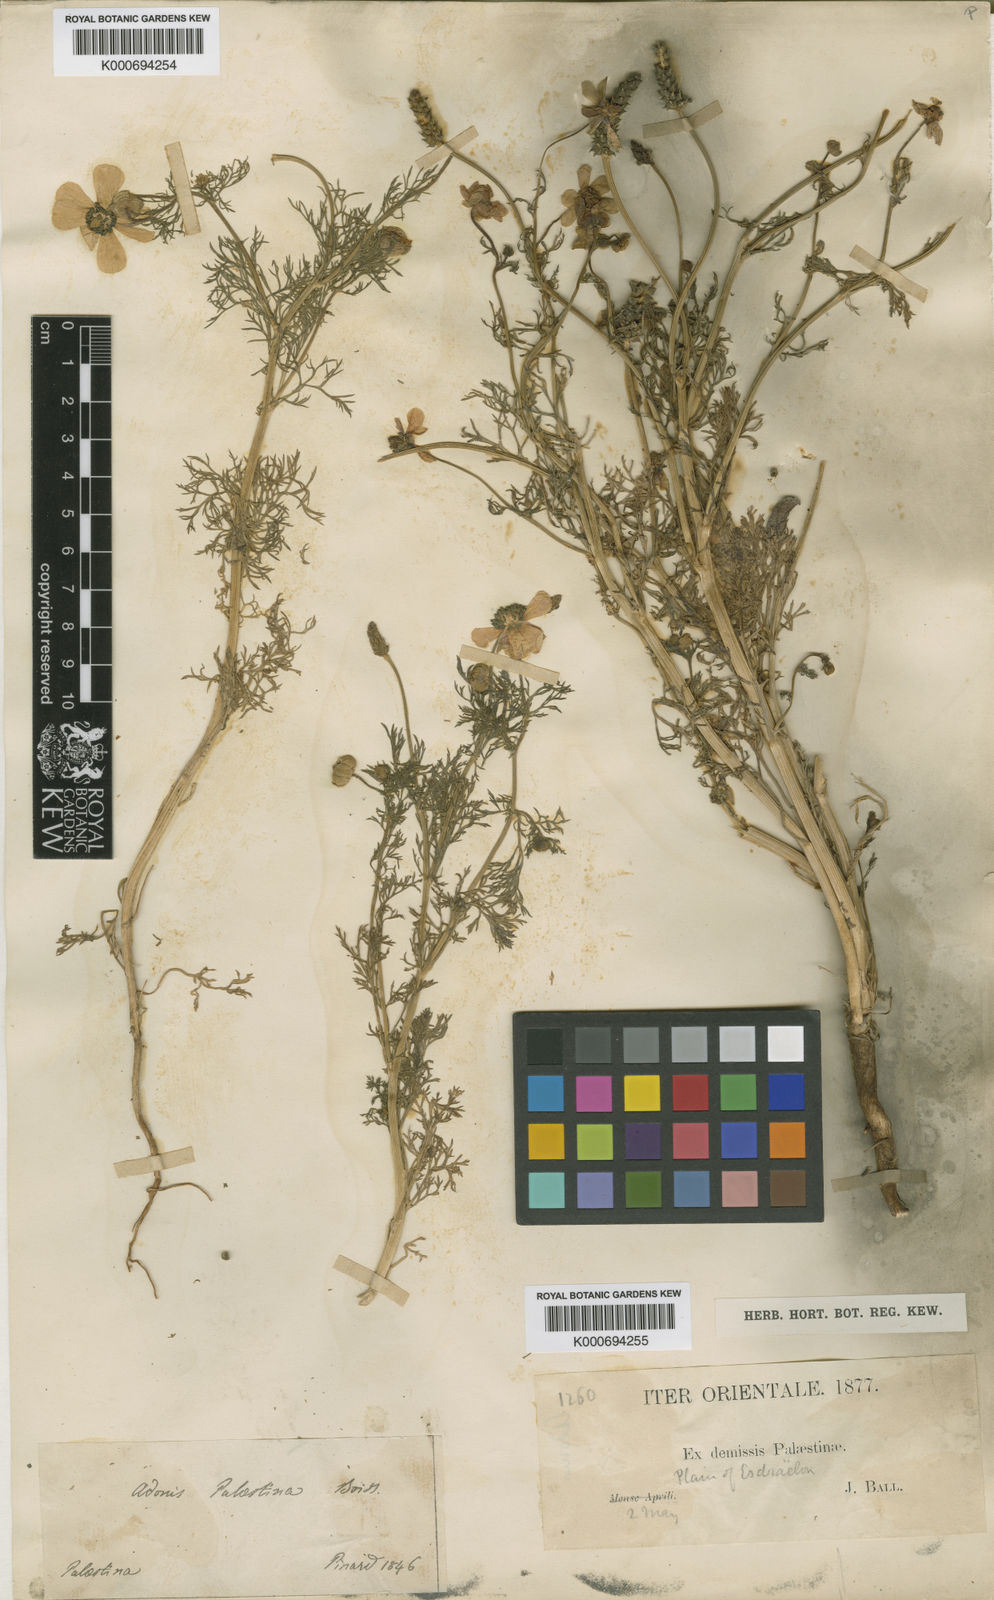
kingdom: Plantae
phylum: Tracheophyta
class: Magnoliopsida
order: Ranunculales
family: Ranunculaceae
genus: Adonis
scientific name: Adonis palaestina
